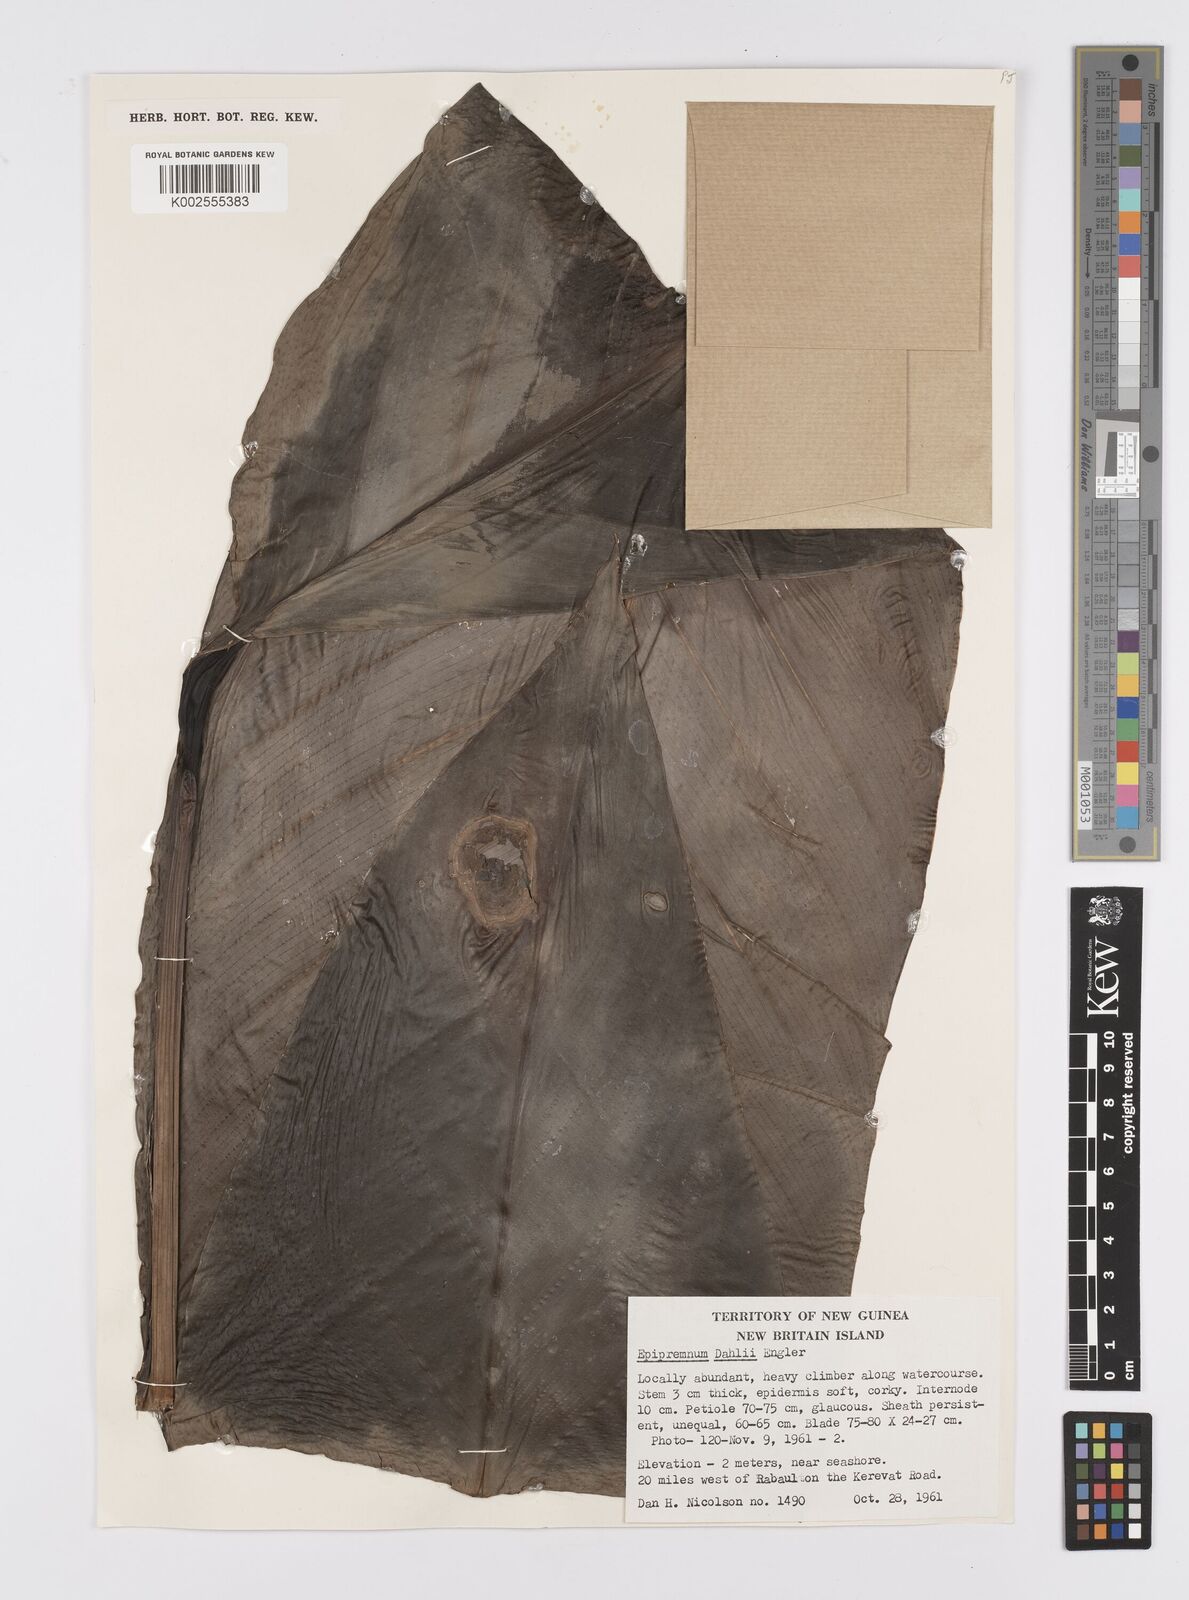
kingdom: Plantae
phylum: Tracheophyta
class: Liliopsida
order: Alismatales
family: Araceae
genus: Epipremnum
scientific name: Epipremnum dahlii
